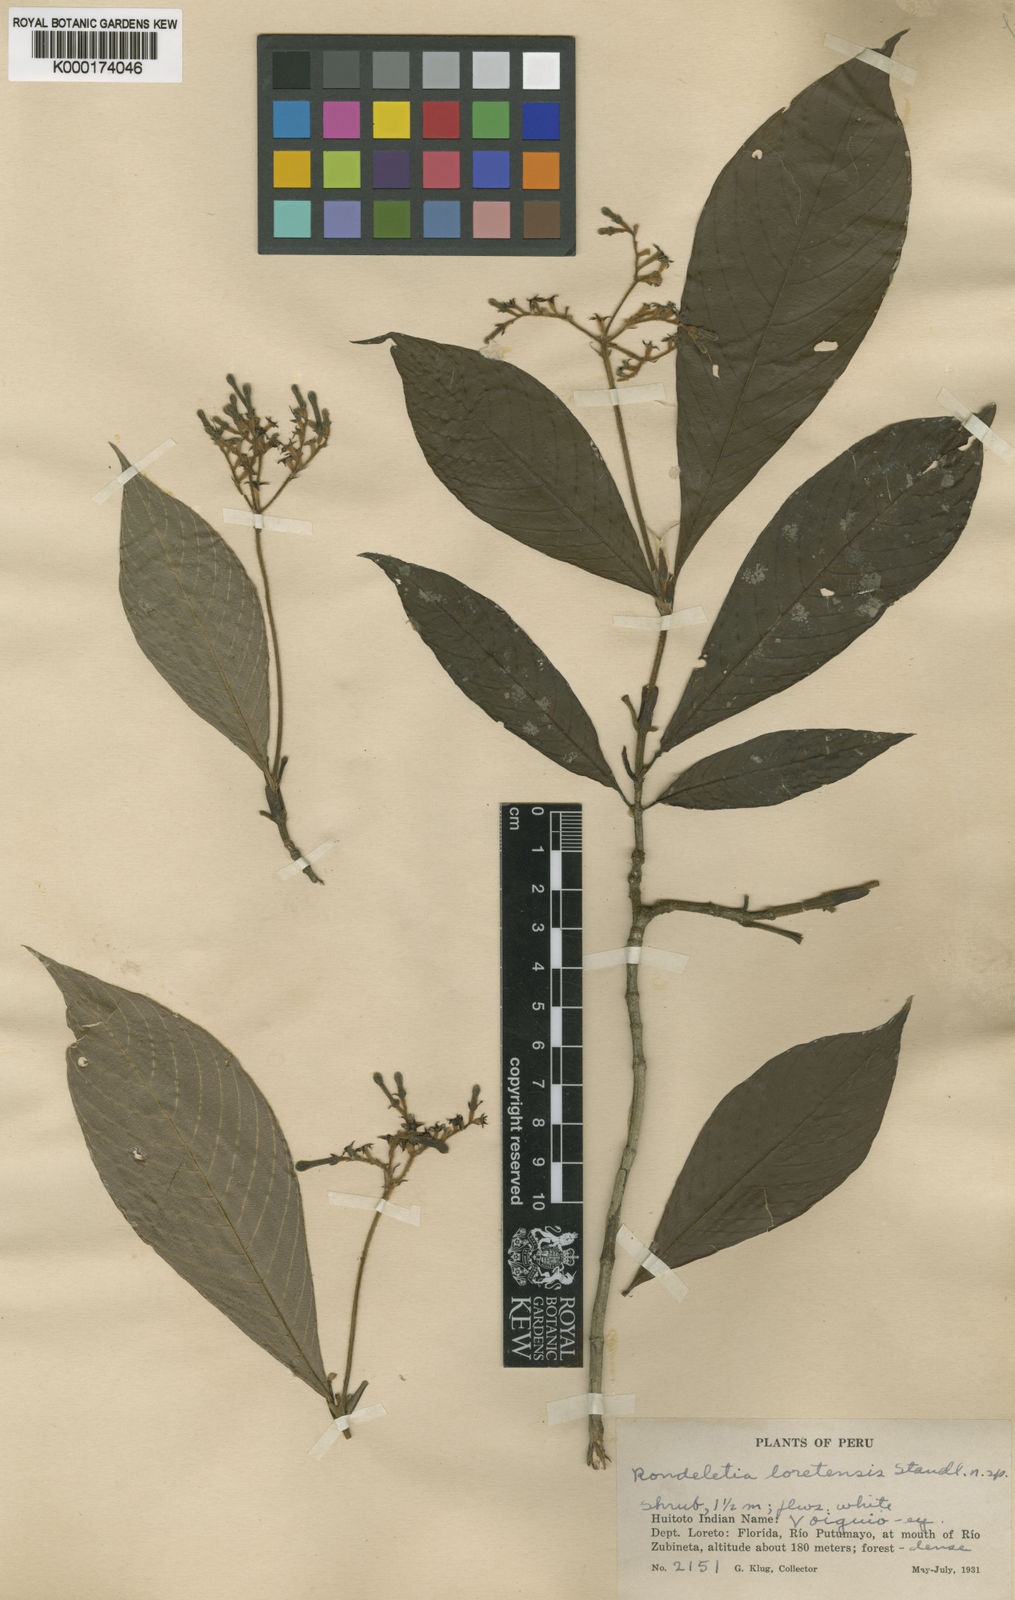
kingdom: Plantae
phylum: Tracheophyta
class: Magnoliopsida
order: Gentianales
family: Rubiaceae
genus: Joosia
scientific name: Joosia loretensis
